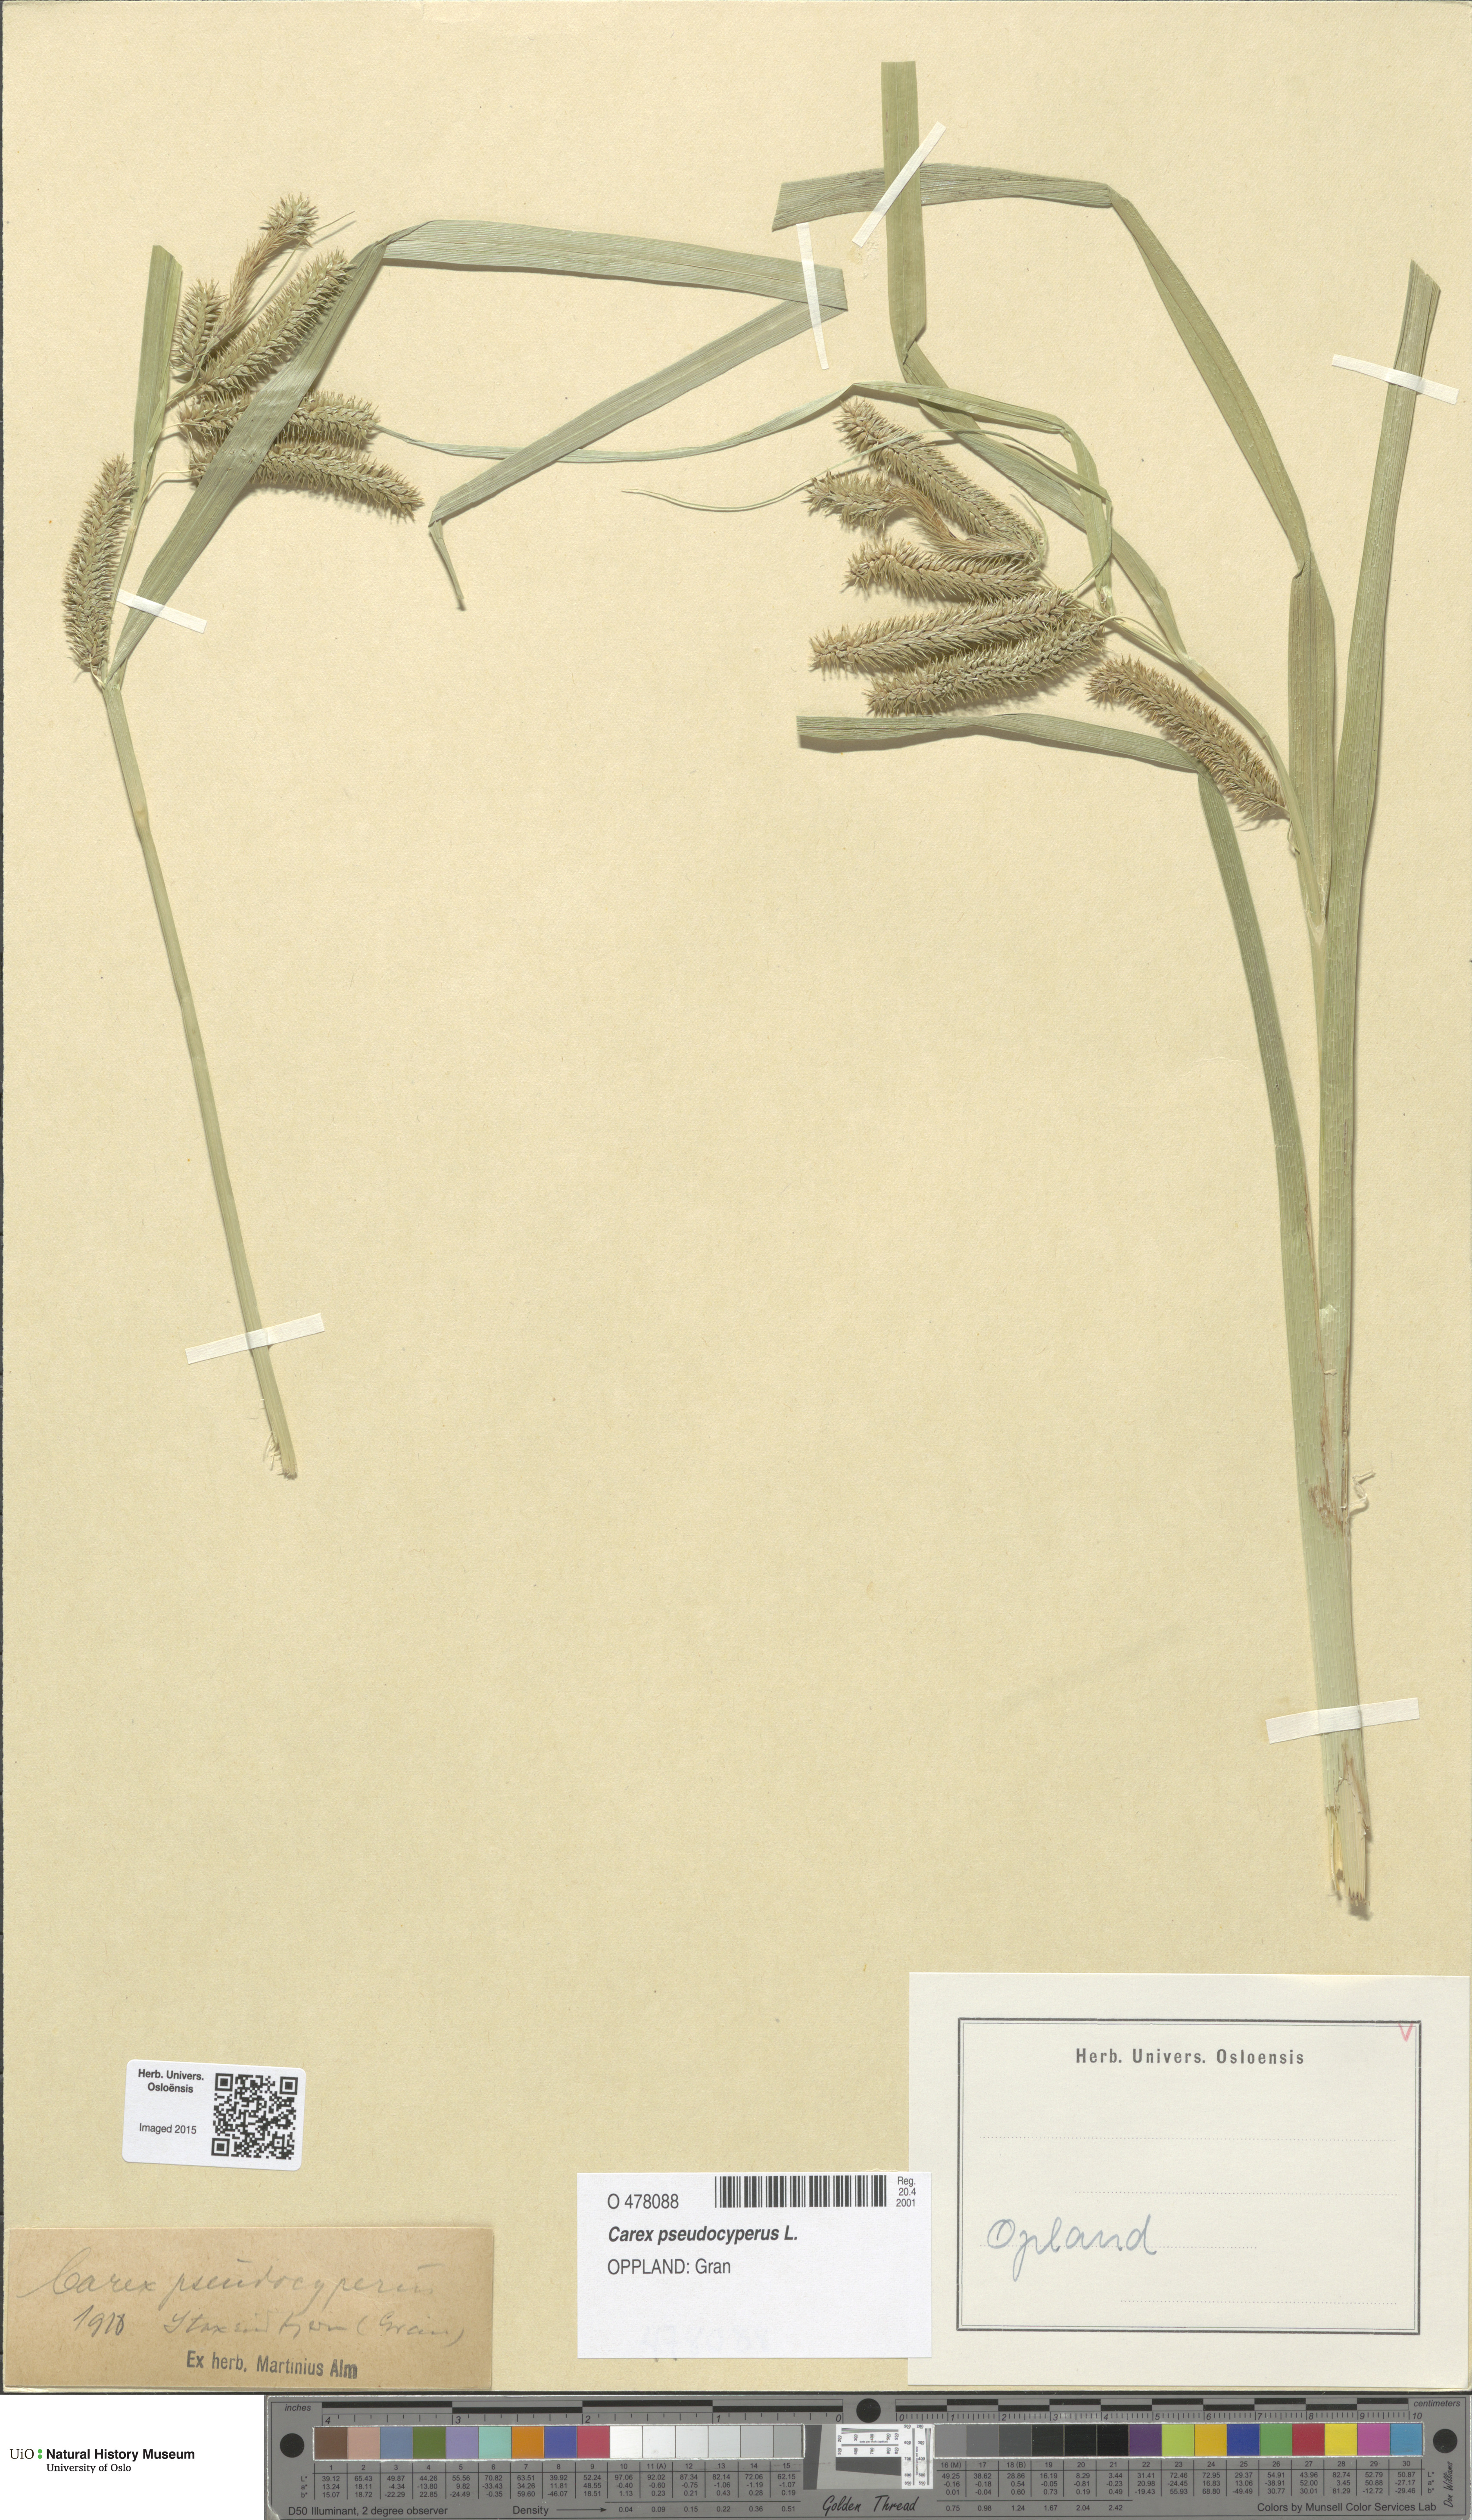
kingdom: Plantae
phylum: Tracheophyta
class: Liliopsida
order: Poales
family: Cyperaceae
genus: Carex
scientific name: Carex pseudocyperus
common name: Cyperus sedge
